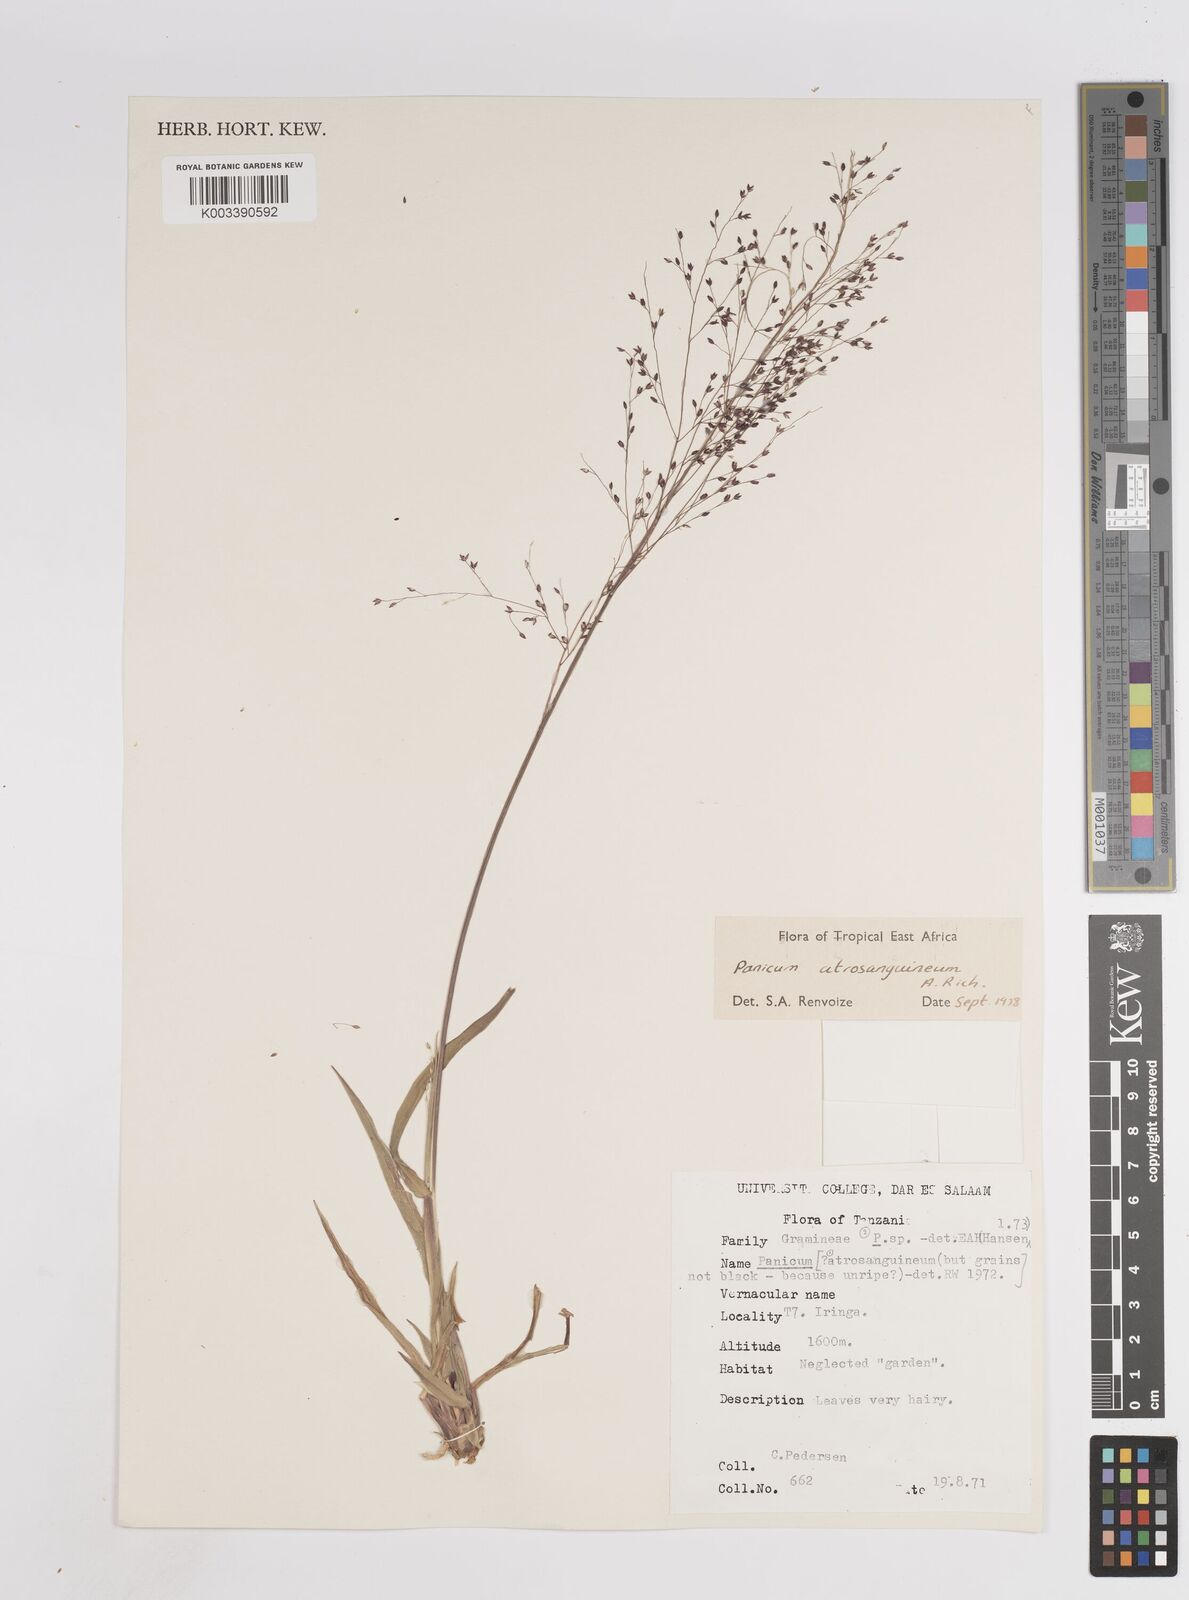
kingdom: Plantae
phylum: Tracheophyta
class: Liliopsida
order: Poales
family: Poaceae
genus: Panicum
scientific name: Panicum atrosanguineum
